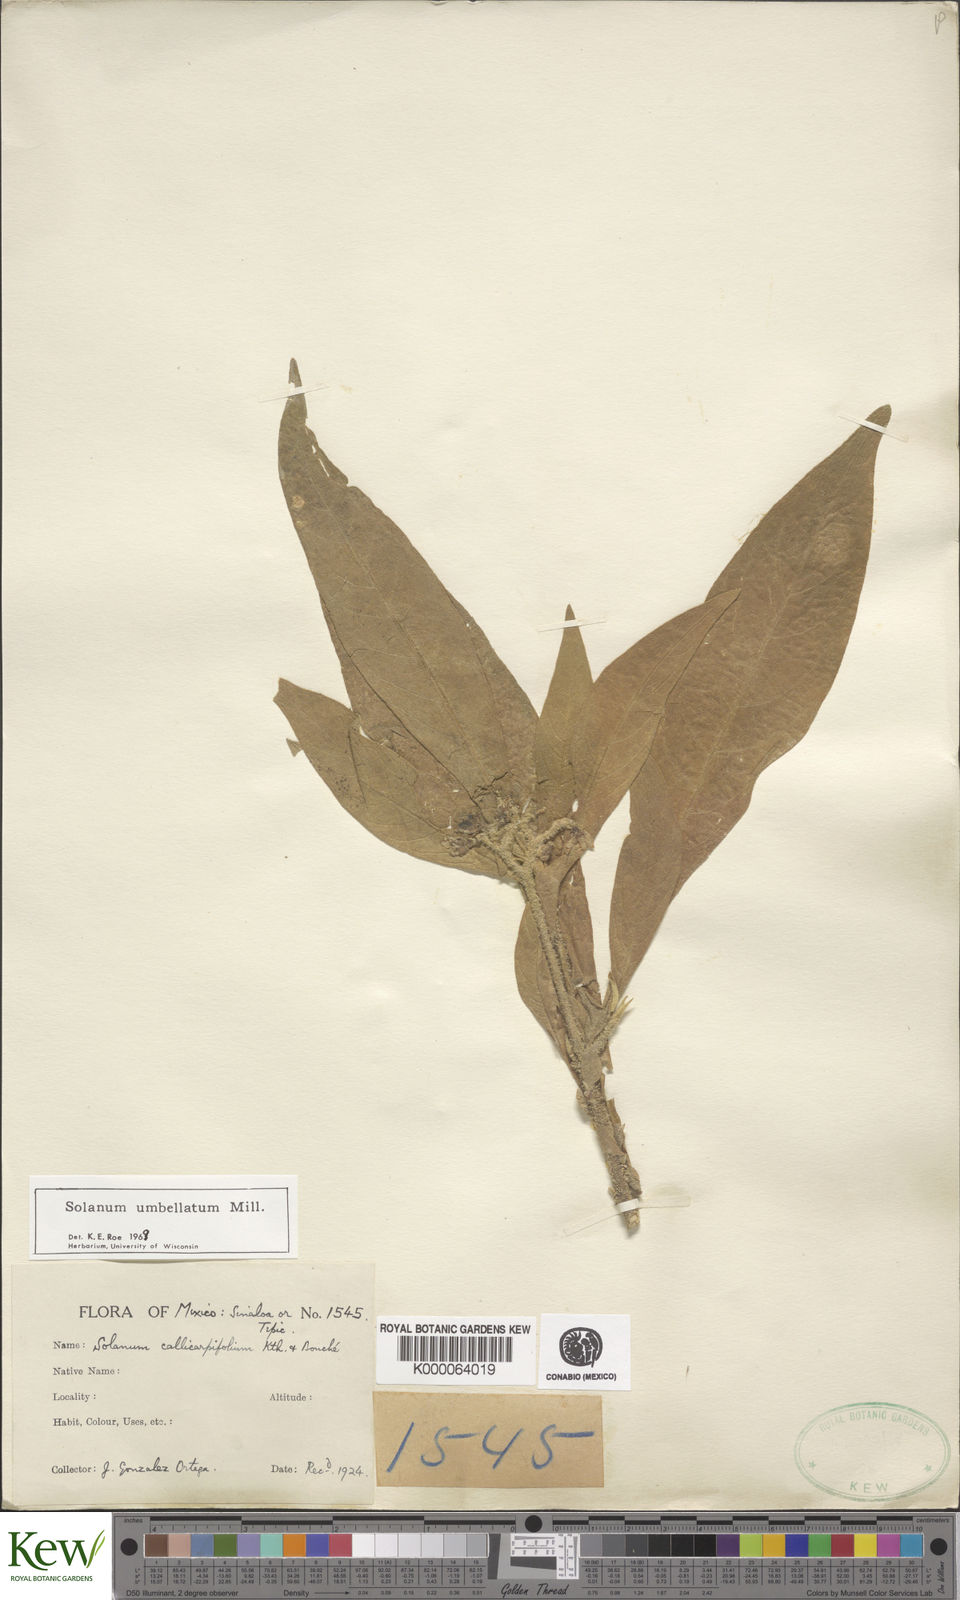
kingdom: Plantae
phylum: Tracheophyta
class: Magnoliopsida
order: Solanales
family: Solanaceae
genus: Solanum
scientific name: Solanum umbellatum
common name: Nightshade
